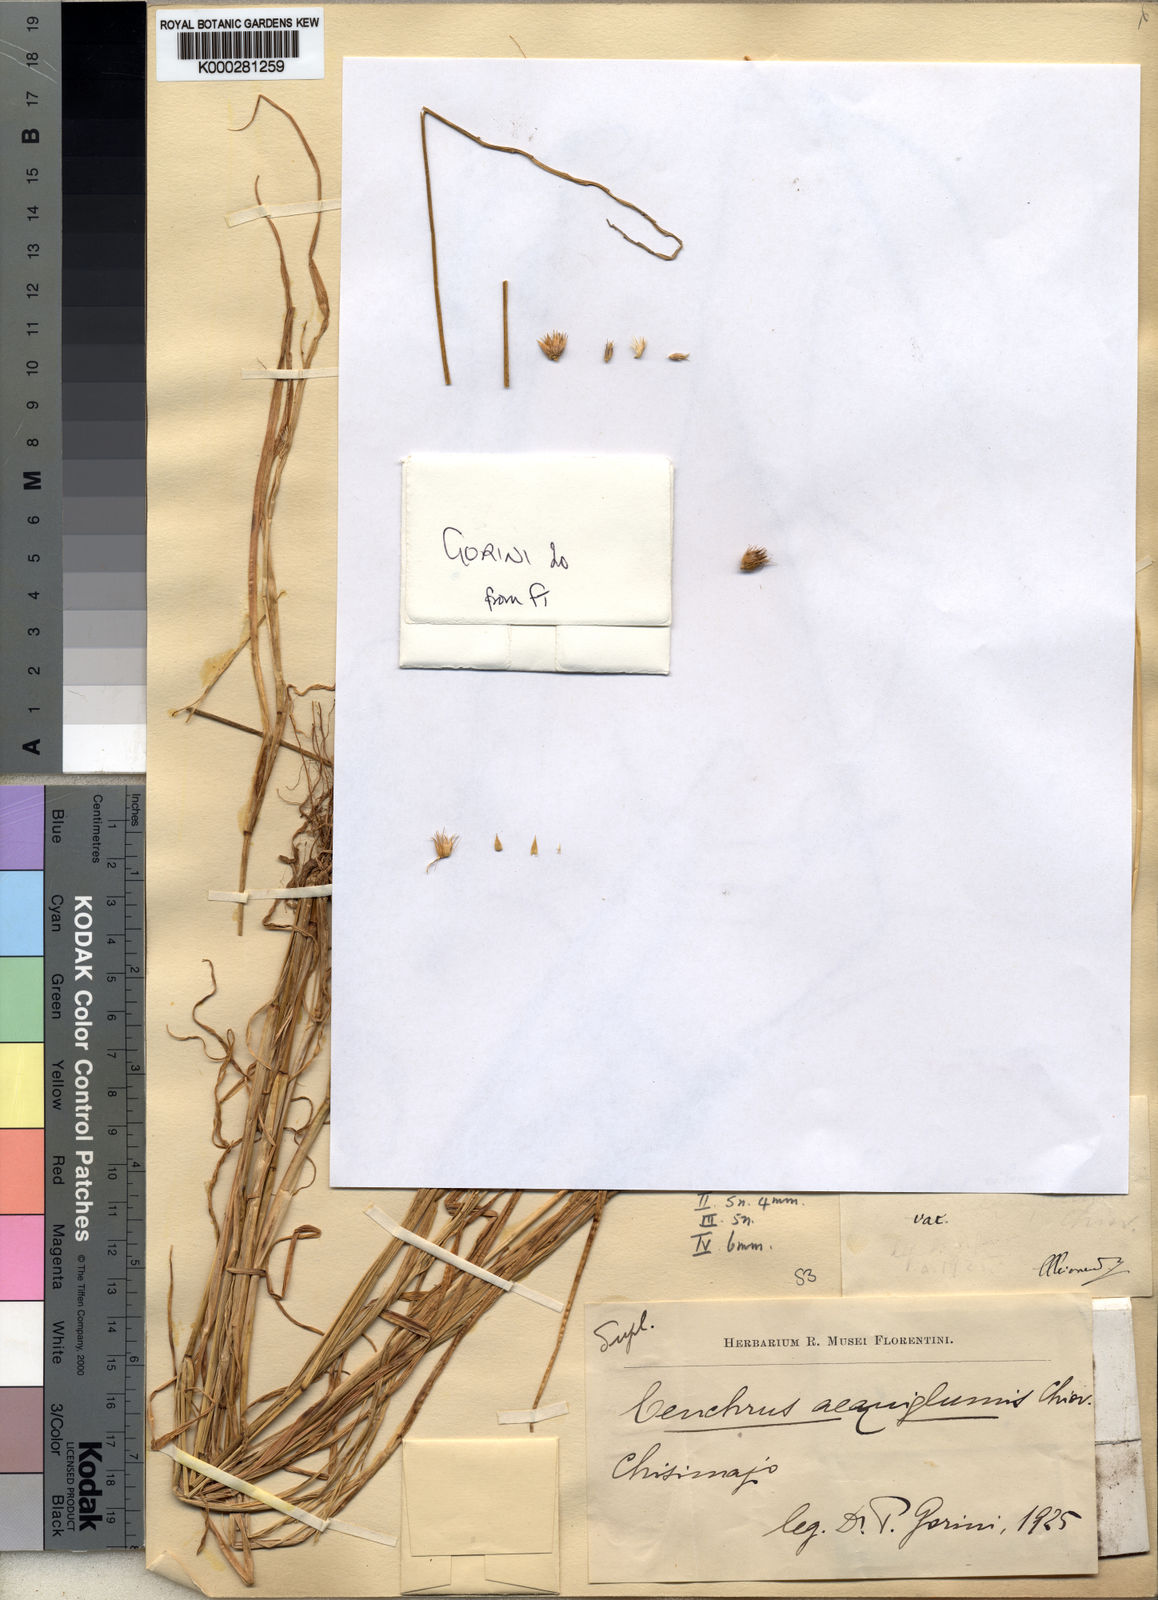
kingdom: Plantae
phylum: Tracheophyta
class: Liliopsida
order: Poales
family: Poaceae
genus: Cenchrus
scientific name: Cenchrus pennisetiformis
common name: Cloncurry
